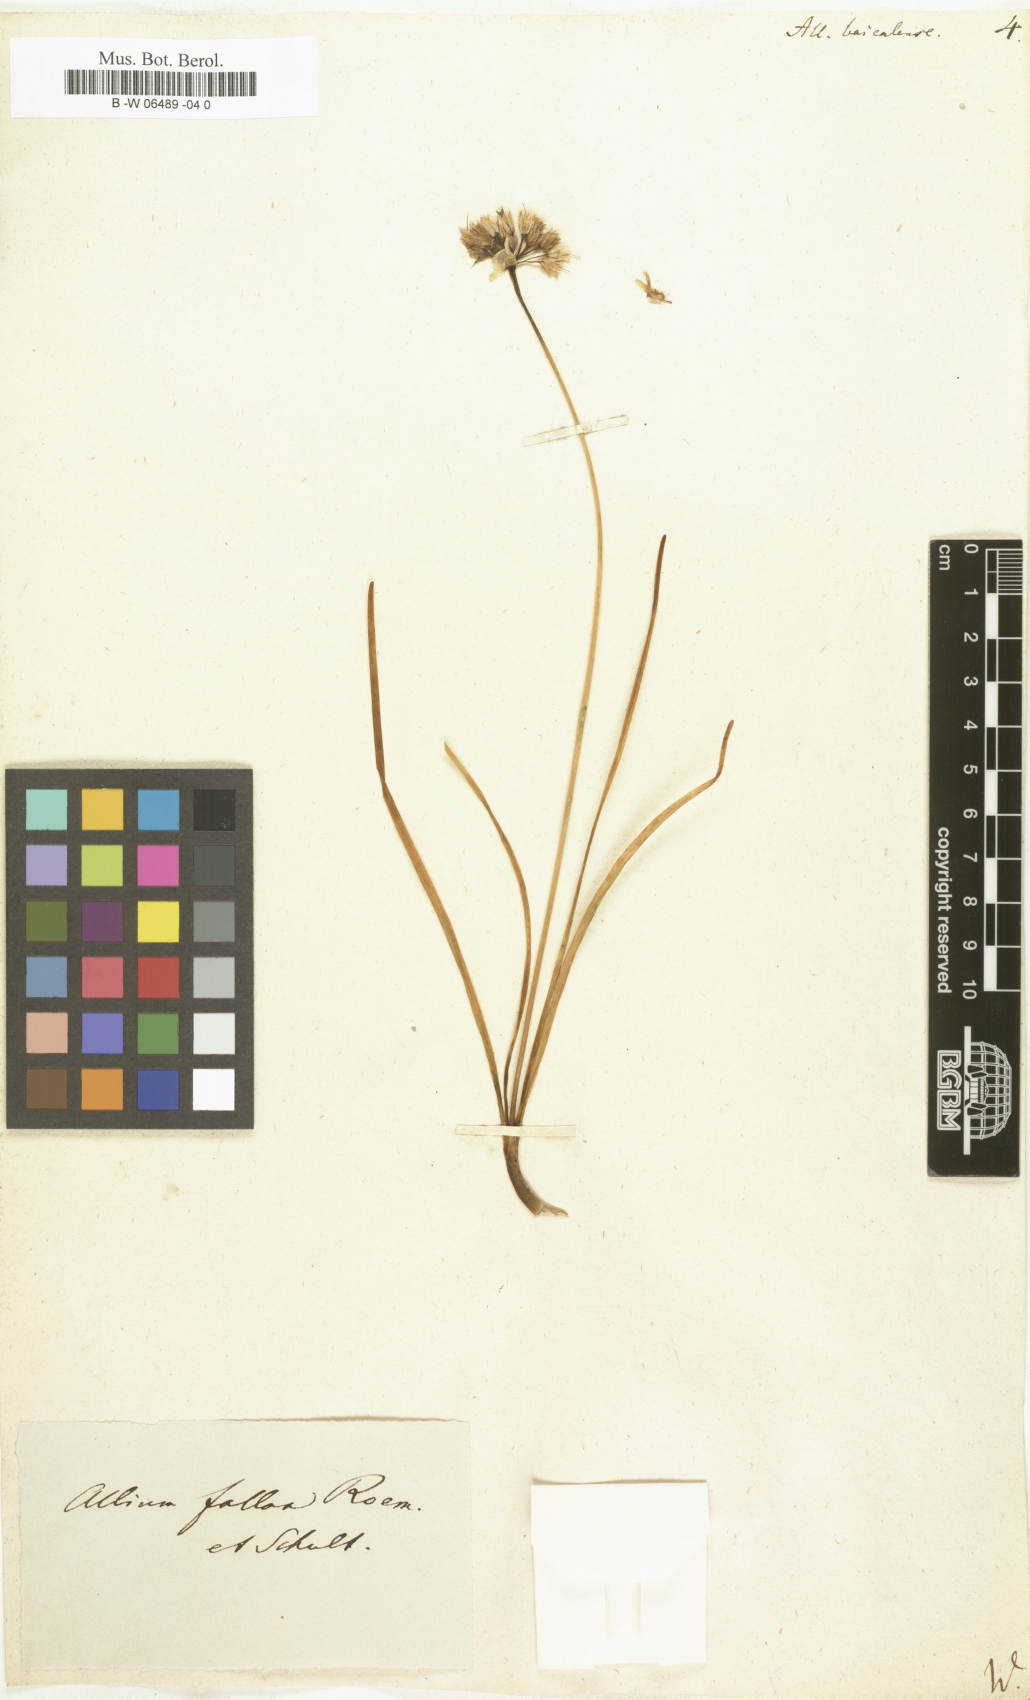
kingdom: Plantae
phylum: Tracheophyta
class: Liliopsida
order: Asparagales
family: Amaryllidaceae
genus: Allium
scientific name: Allium senescens
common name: German garlic
